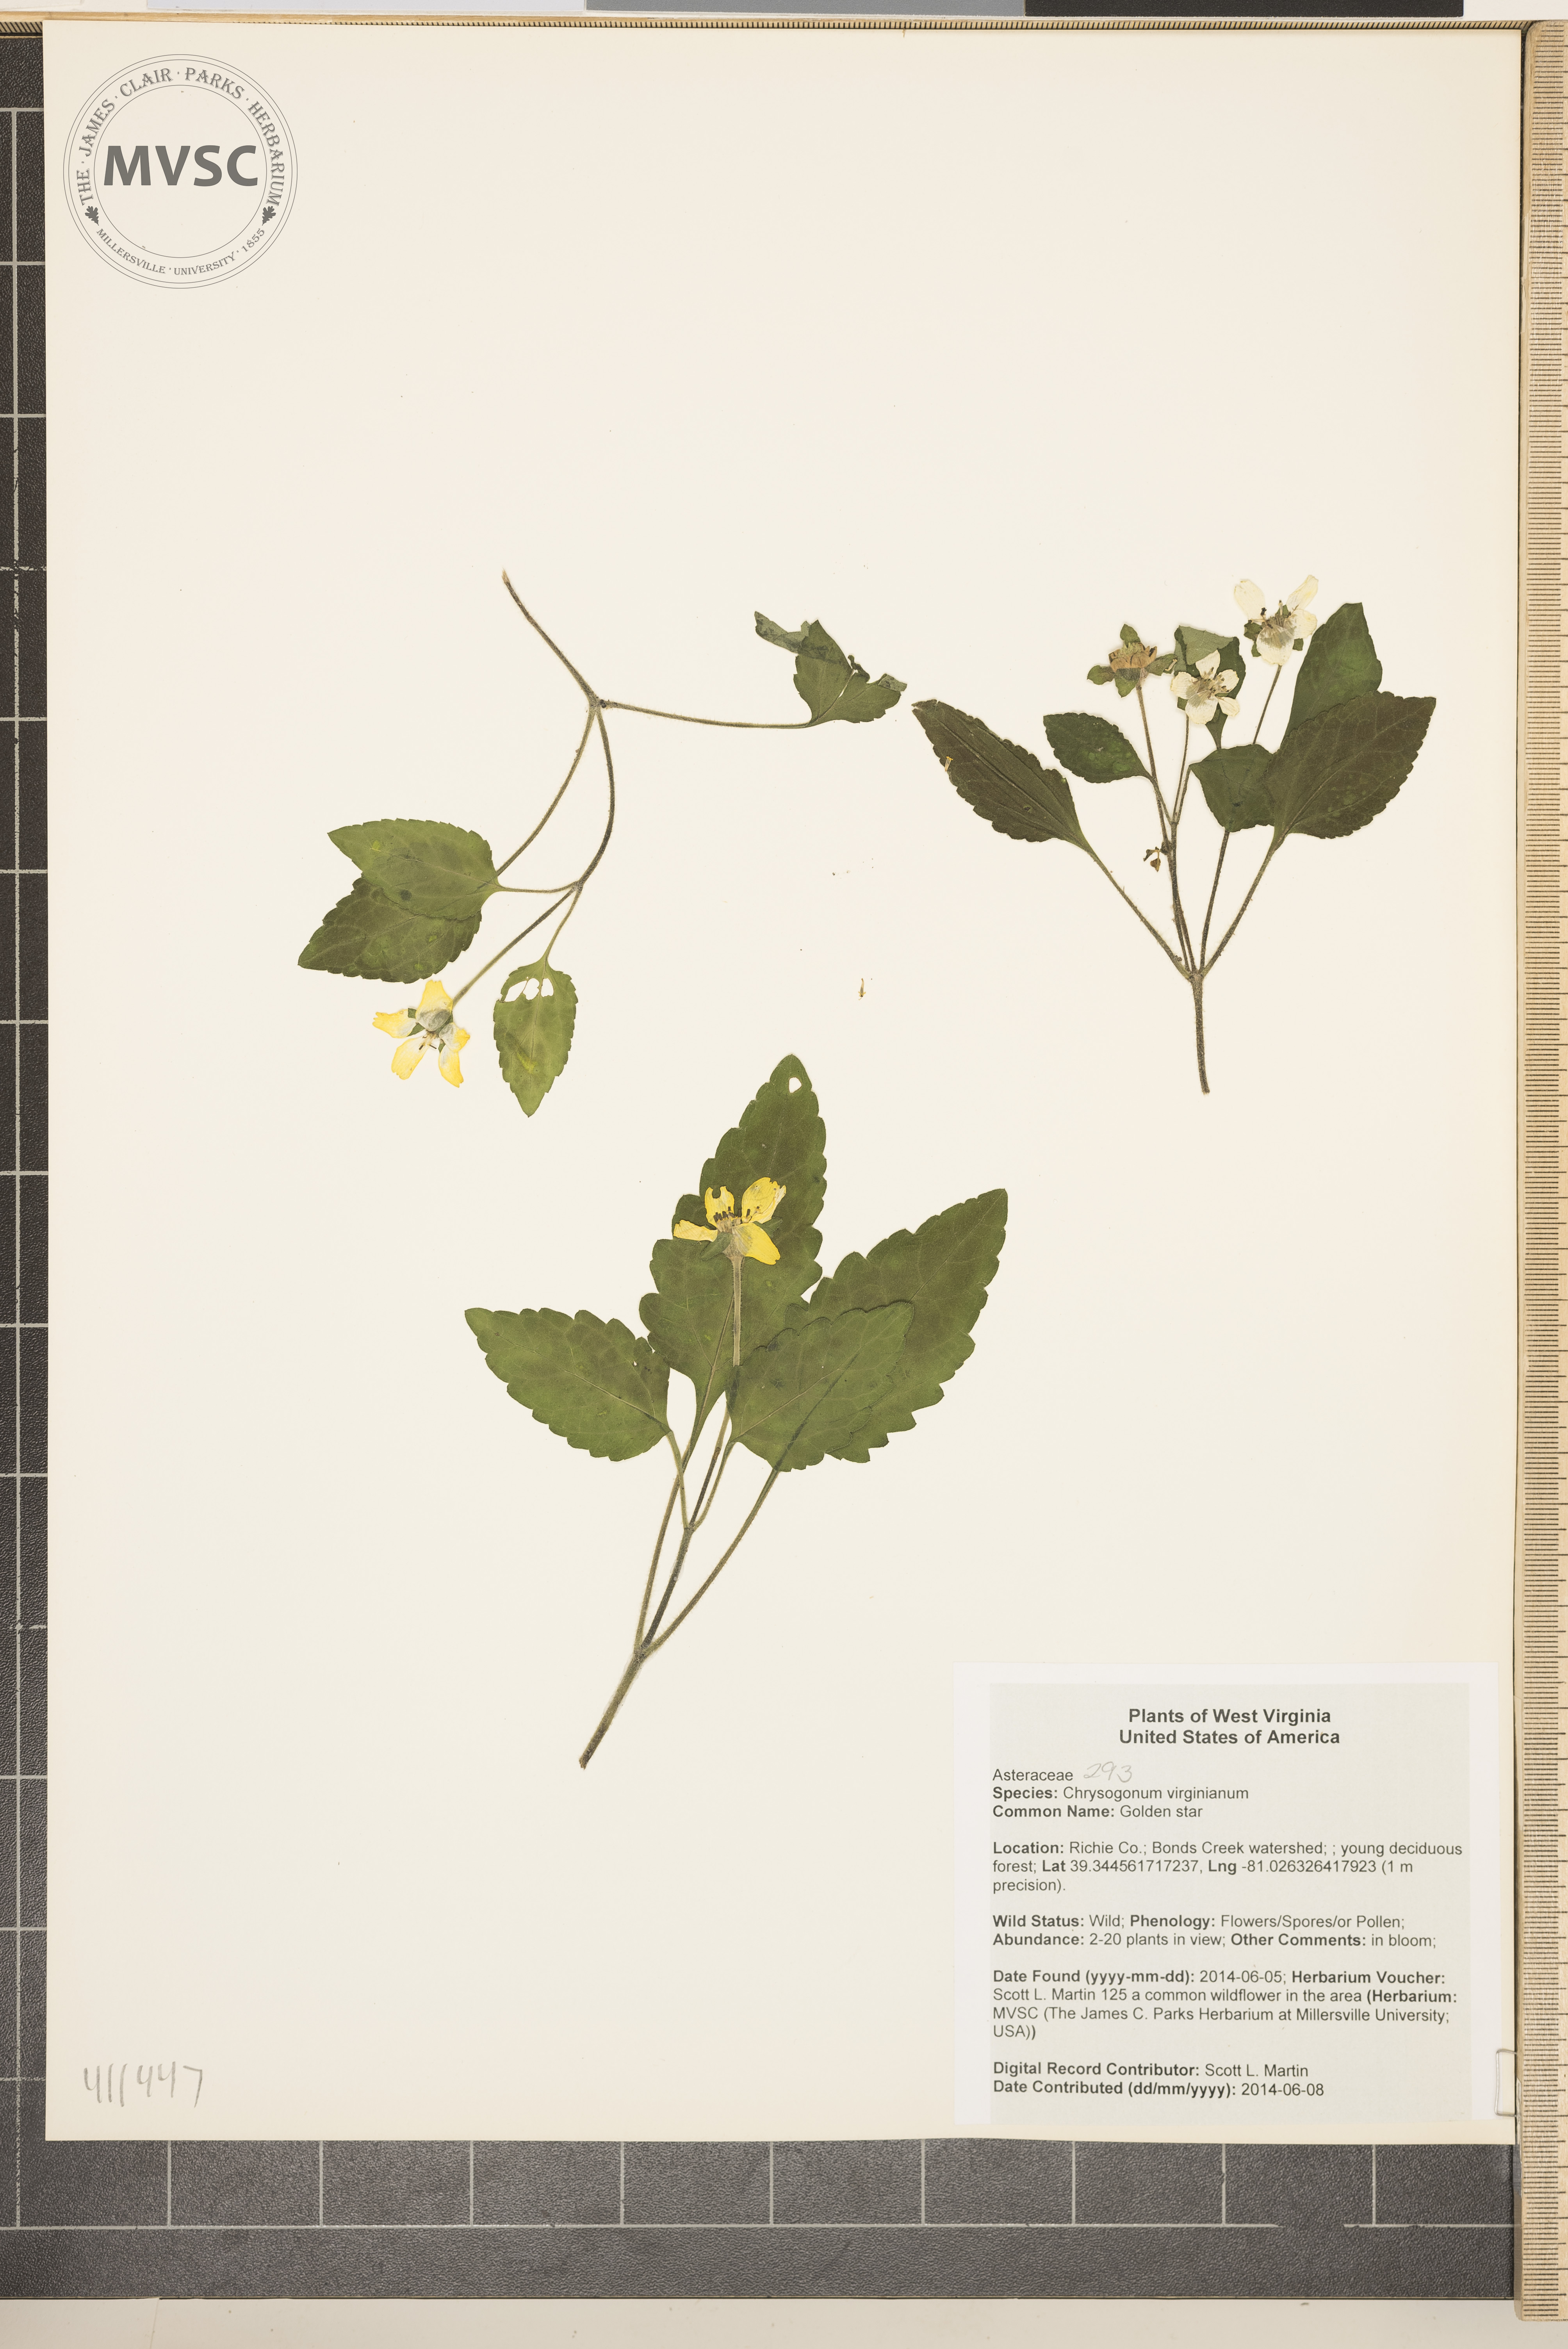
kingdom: Plantae
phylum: Tracheophyta
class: Magnoliopsida
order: Asterales
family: Asteraceae
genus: Chrysogonum
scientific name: Chrysogonum virginianum
